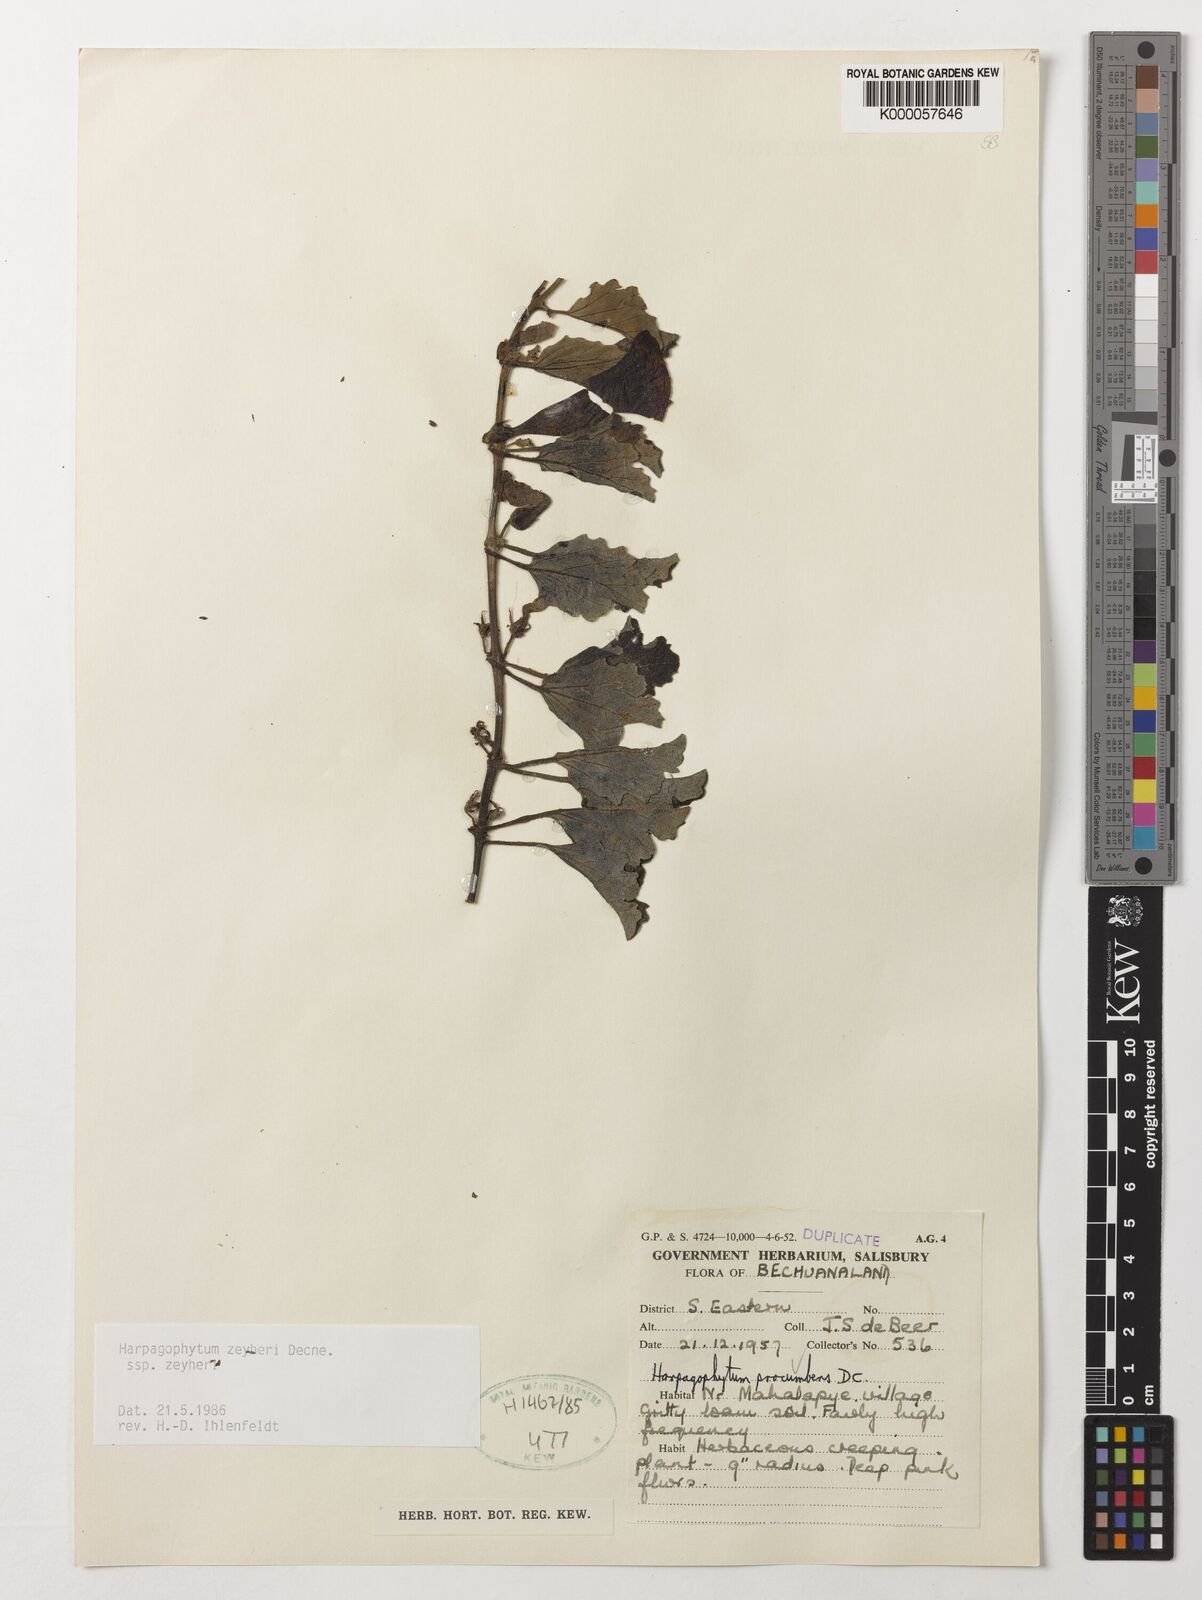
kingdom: Plantae
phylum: Tracheophyta
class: Magnoliopsida
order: Lamiales
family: Pedaliaceae
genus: Harpagophytum
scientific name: Harpagophytum zeyheri
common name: Grappleplant
